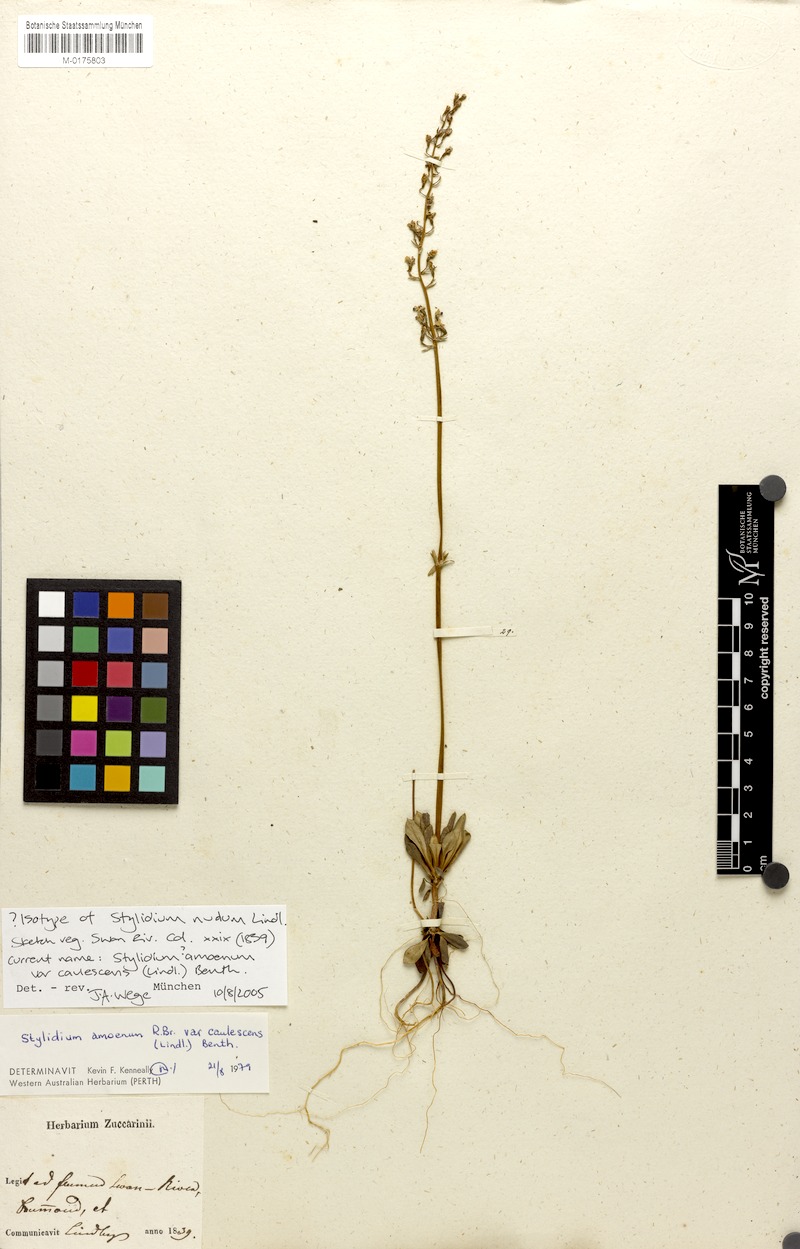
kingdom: Plantae
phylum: Tracheophyta
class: Magnoliopsida
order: Asterales
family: Stylidiaceae
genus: Stylidium
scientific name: Stylidium amoenum
